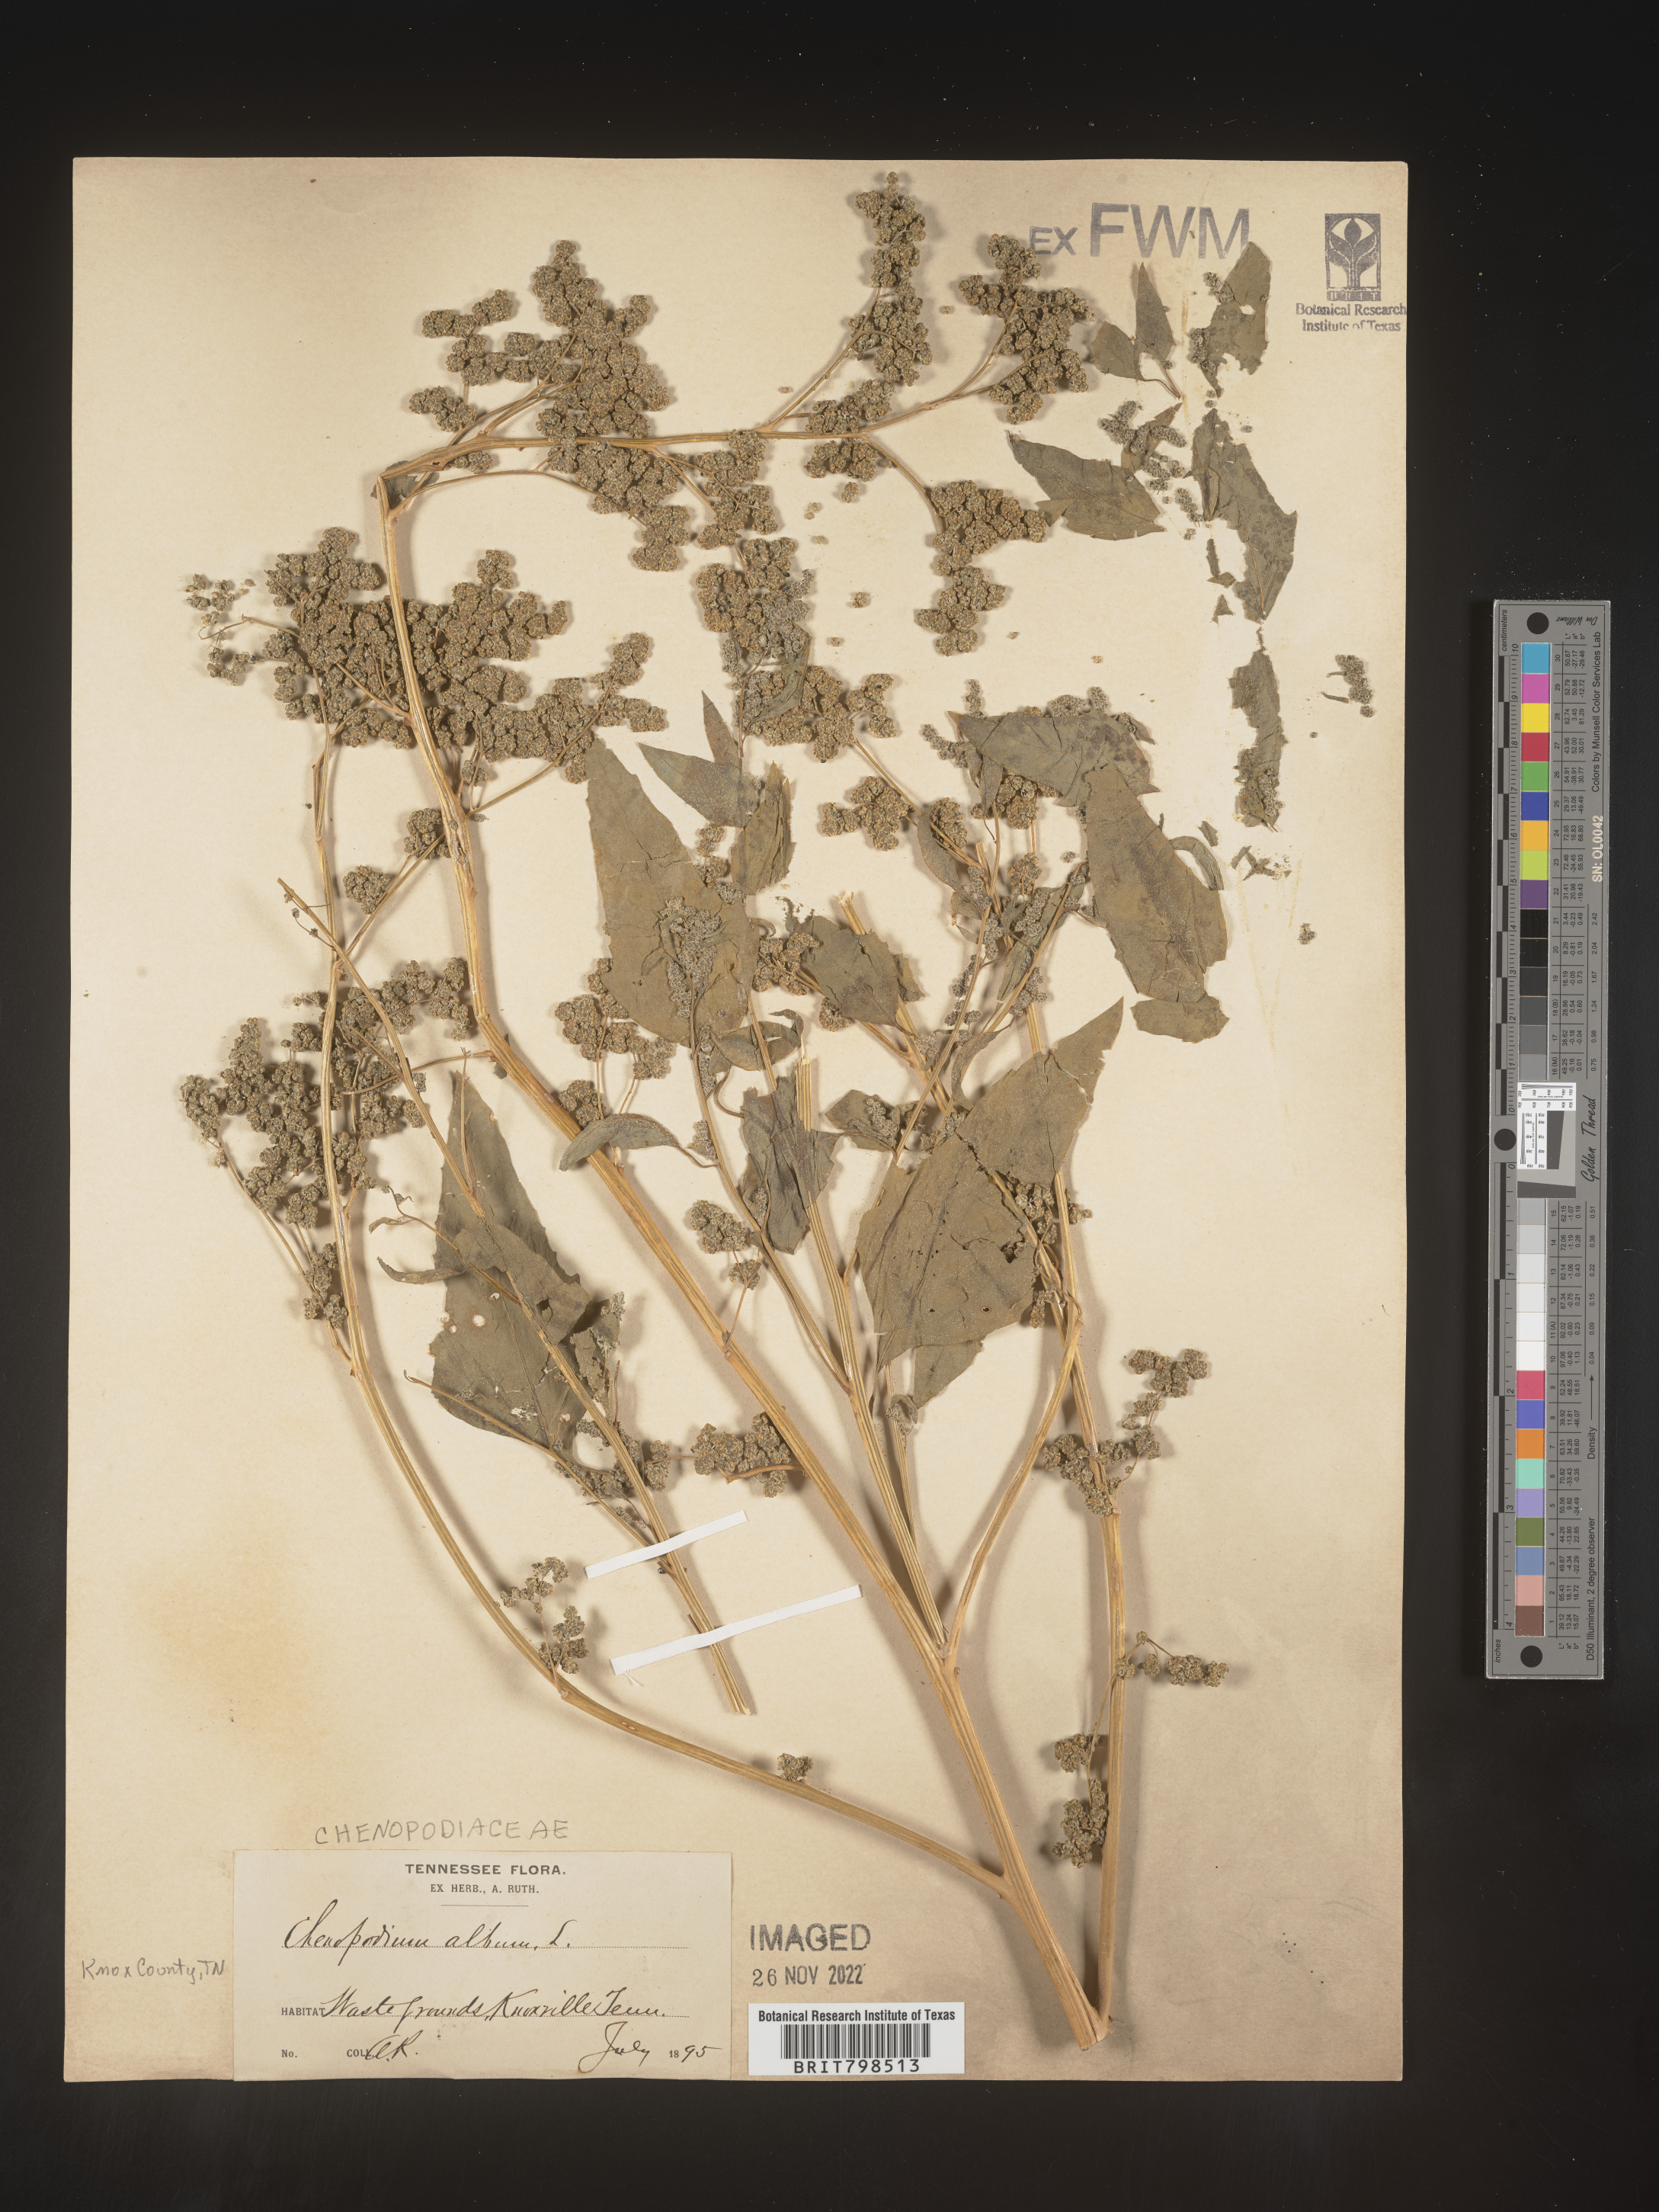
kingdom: Plantae
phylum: Tracheophyta
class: Magnoliopsida
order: Caryophyllales
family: Amaranthaceae
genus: Chenopodium
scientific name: Chenopodium album
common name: Fat-hen
